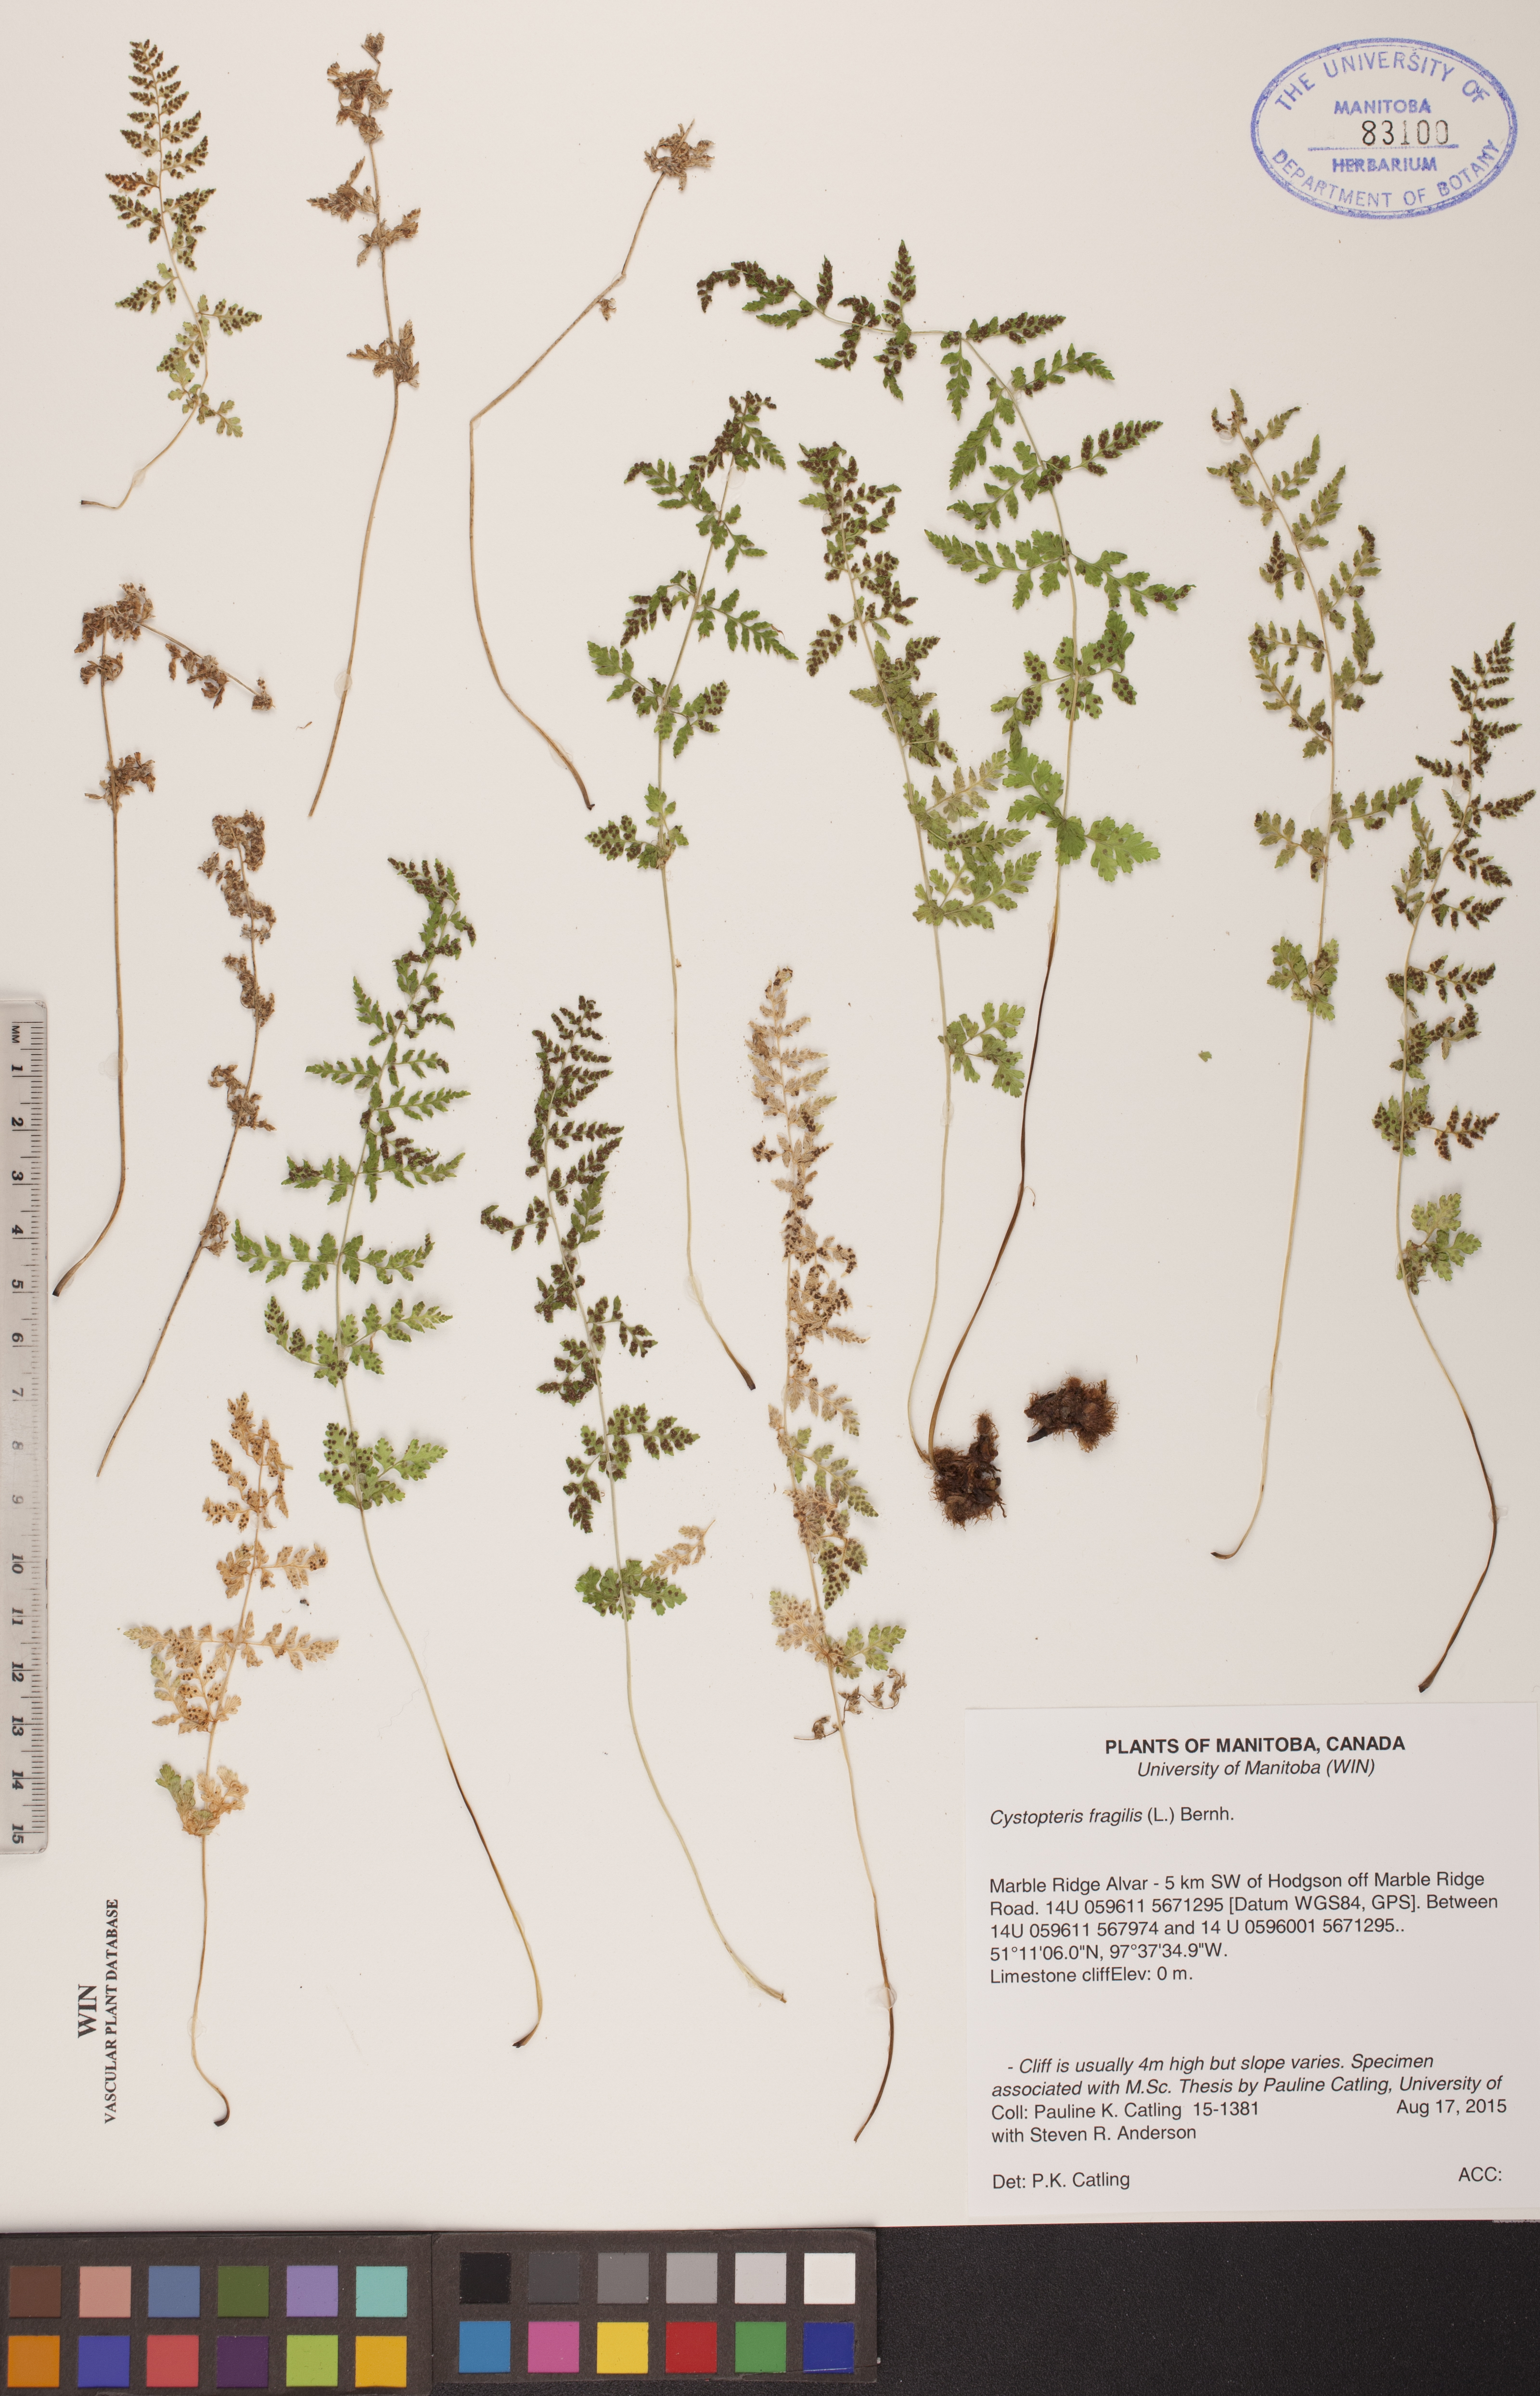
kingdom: Plantae
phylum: Tracheophyta
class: Polypodiopsida
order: Polypodiales
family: Cystopteridaceae
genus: Cystopteris
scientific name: Cystopteris fragilis
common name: Brittle bladder fern
